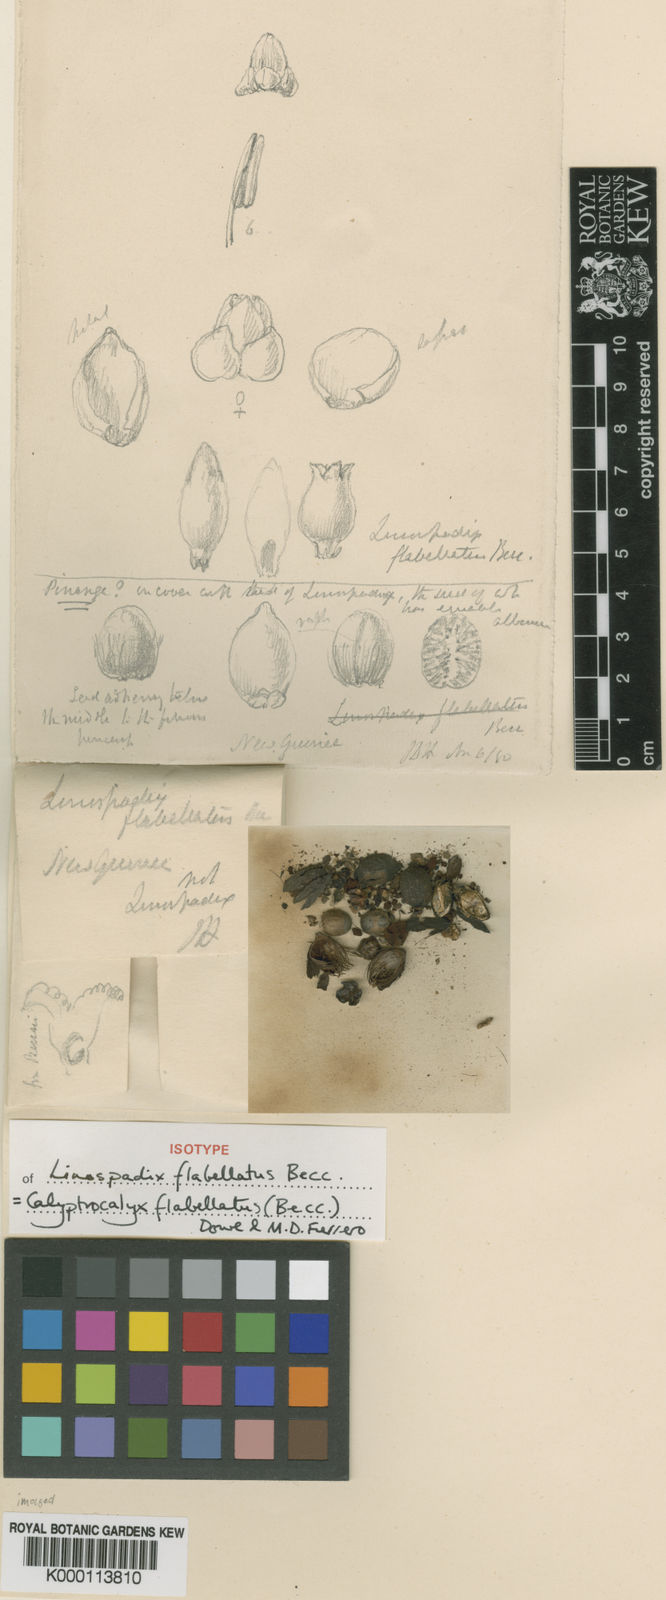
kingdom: Plantae
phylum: Tracheophyta
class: Liliopsida
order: Arecales
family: Arecaceae
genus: Calyptrocalyx
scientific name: Calyptrocalyx flabellatus
